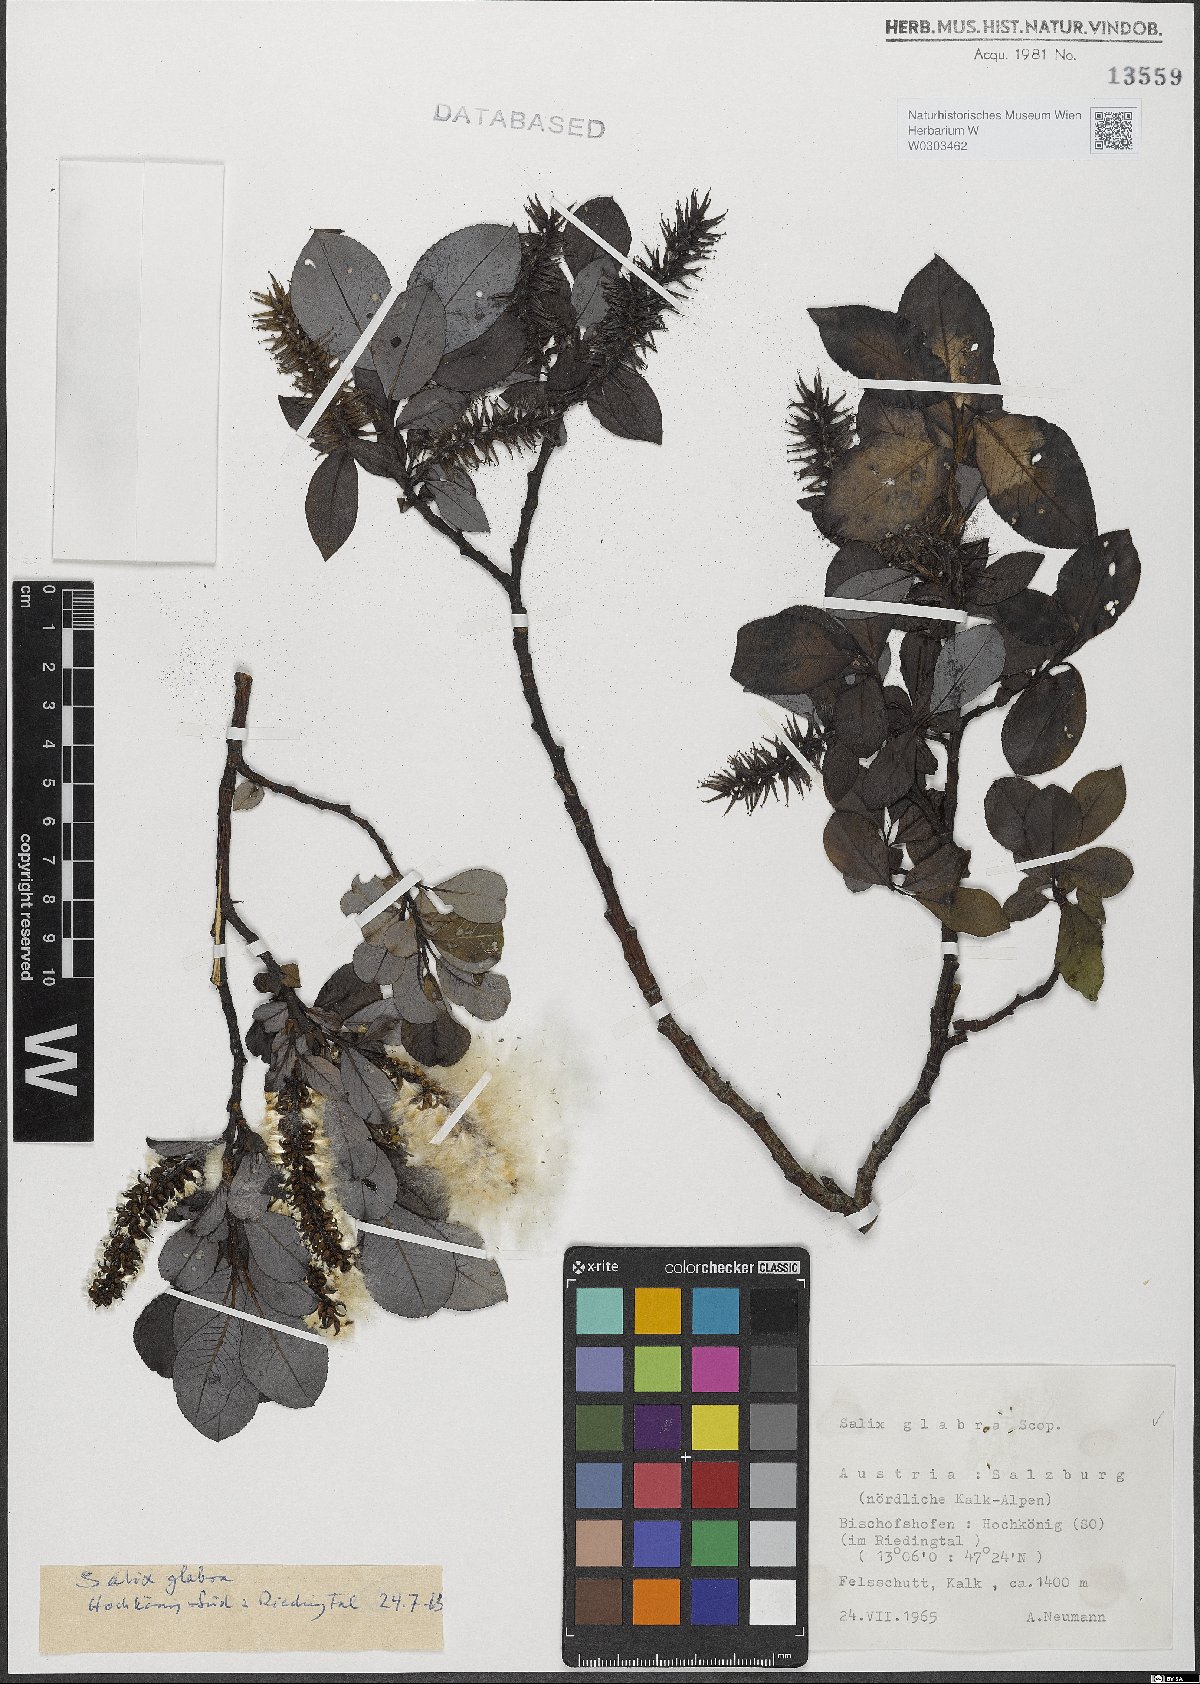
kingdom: Plantae
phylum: Tracheophyta
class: Magnoliopsida
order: Malpighiales
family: Salicaceae
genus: Salix
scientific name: Salix glabra
